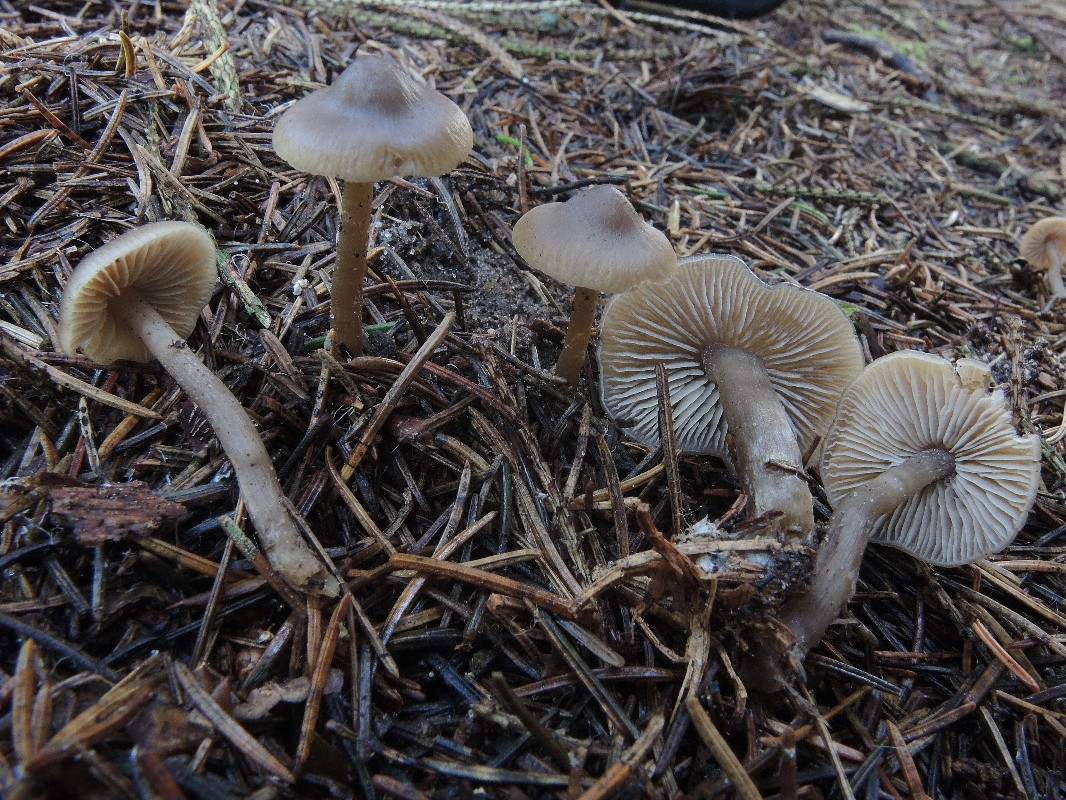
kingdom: Fungi
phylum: Basidiomycota
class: Agaricomycetes
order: Agaricales
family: Lyophyllaceae
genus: Myochromella
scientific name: Myochromella boudieri
